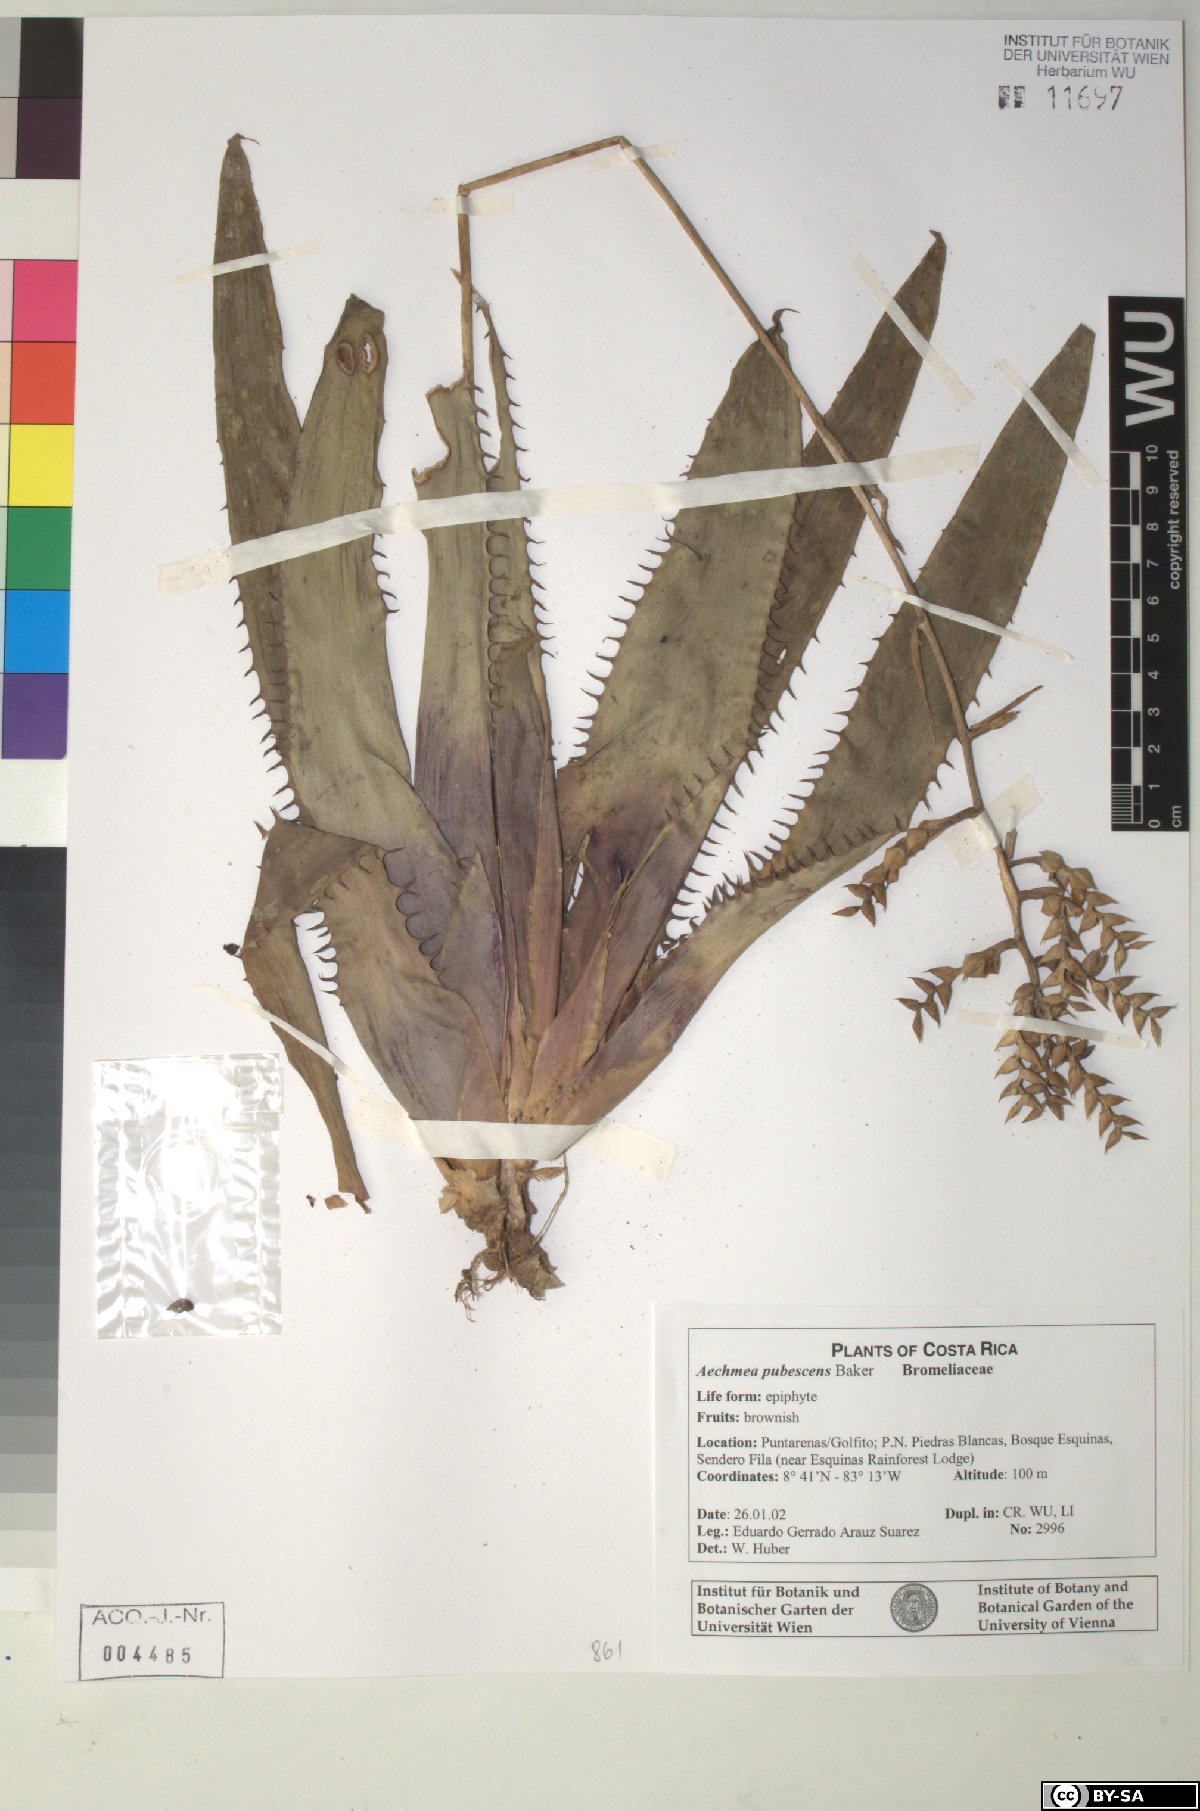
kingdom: Plantae
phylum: Tracheophyta
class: Liliopsida
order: Poales
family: Bromeliaceae
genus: Aechmea
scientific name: Aechmea pubescens
